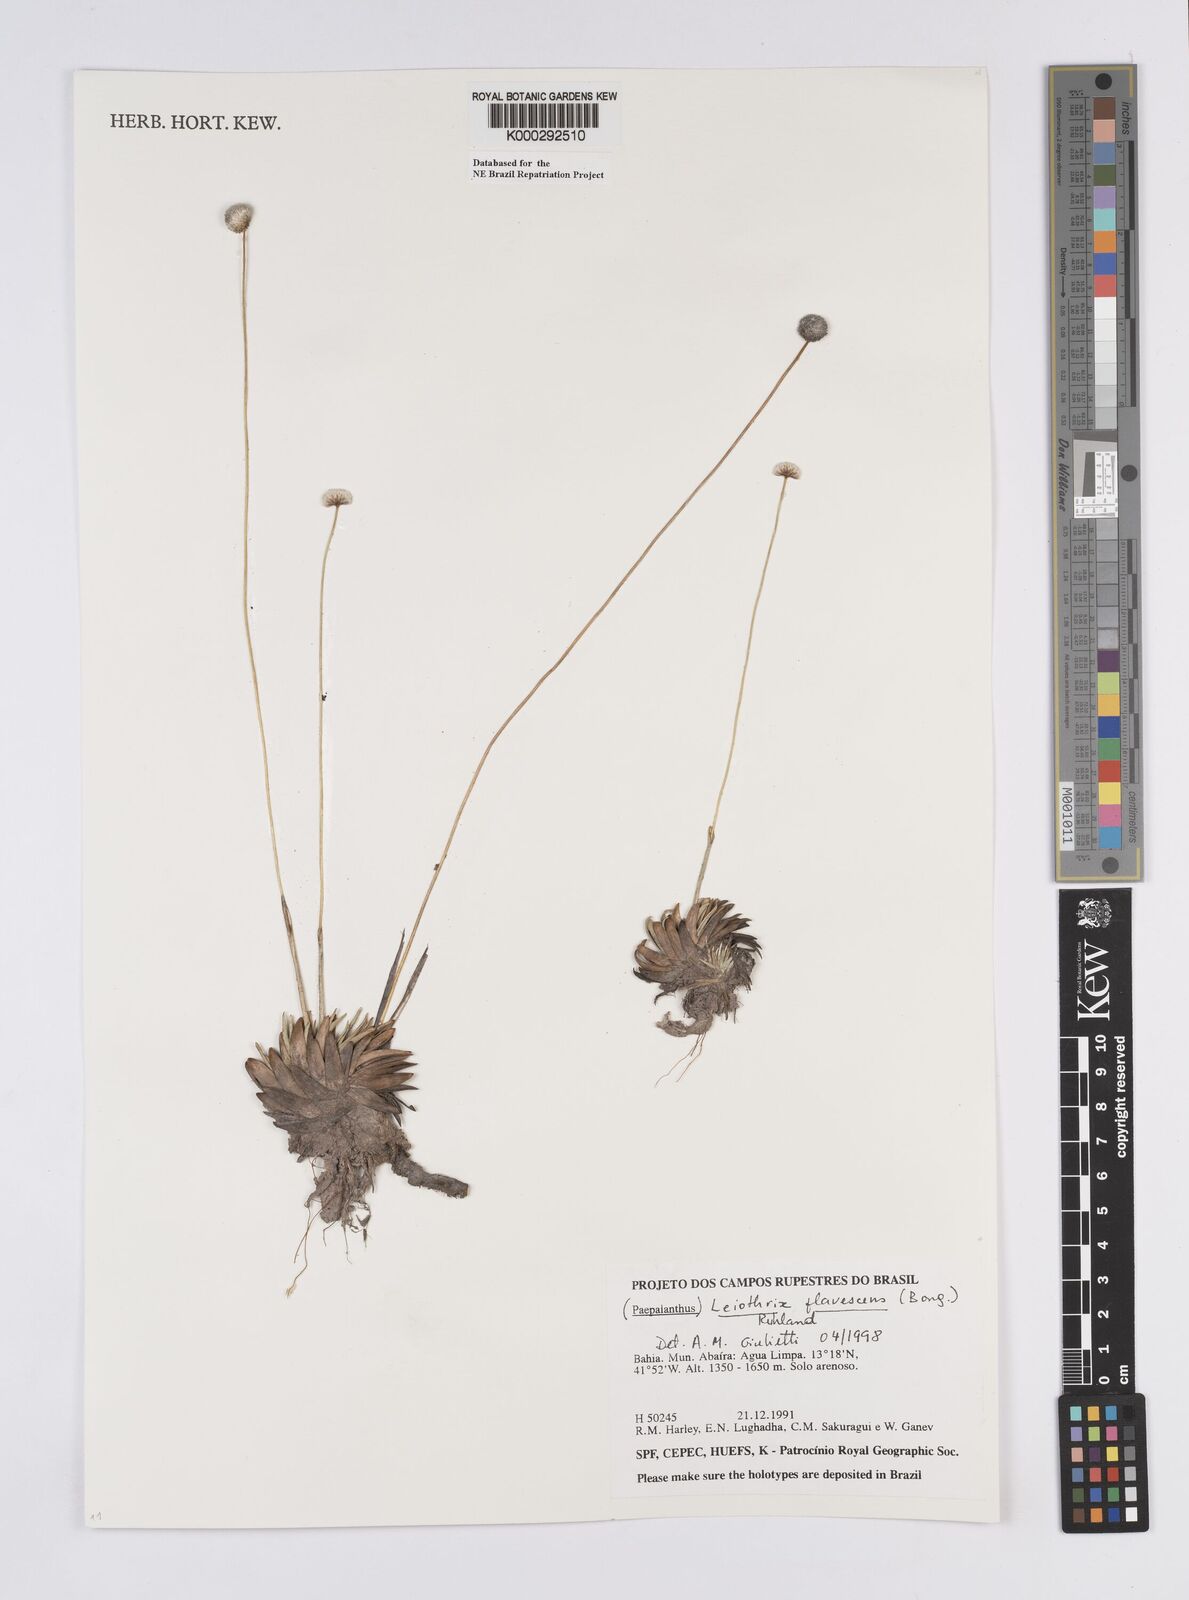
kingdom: Plantae
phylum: Tracheophyta
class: Liliopsida
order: Poales
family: Eriocaulaceae
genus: Leiothrix
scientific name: Leiothrix flavescens
